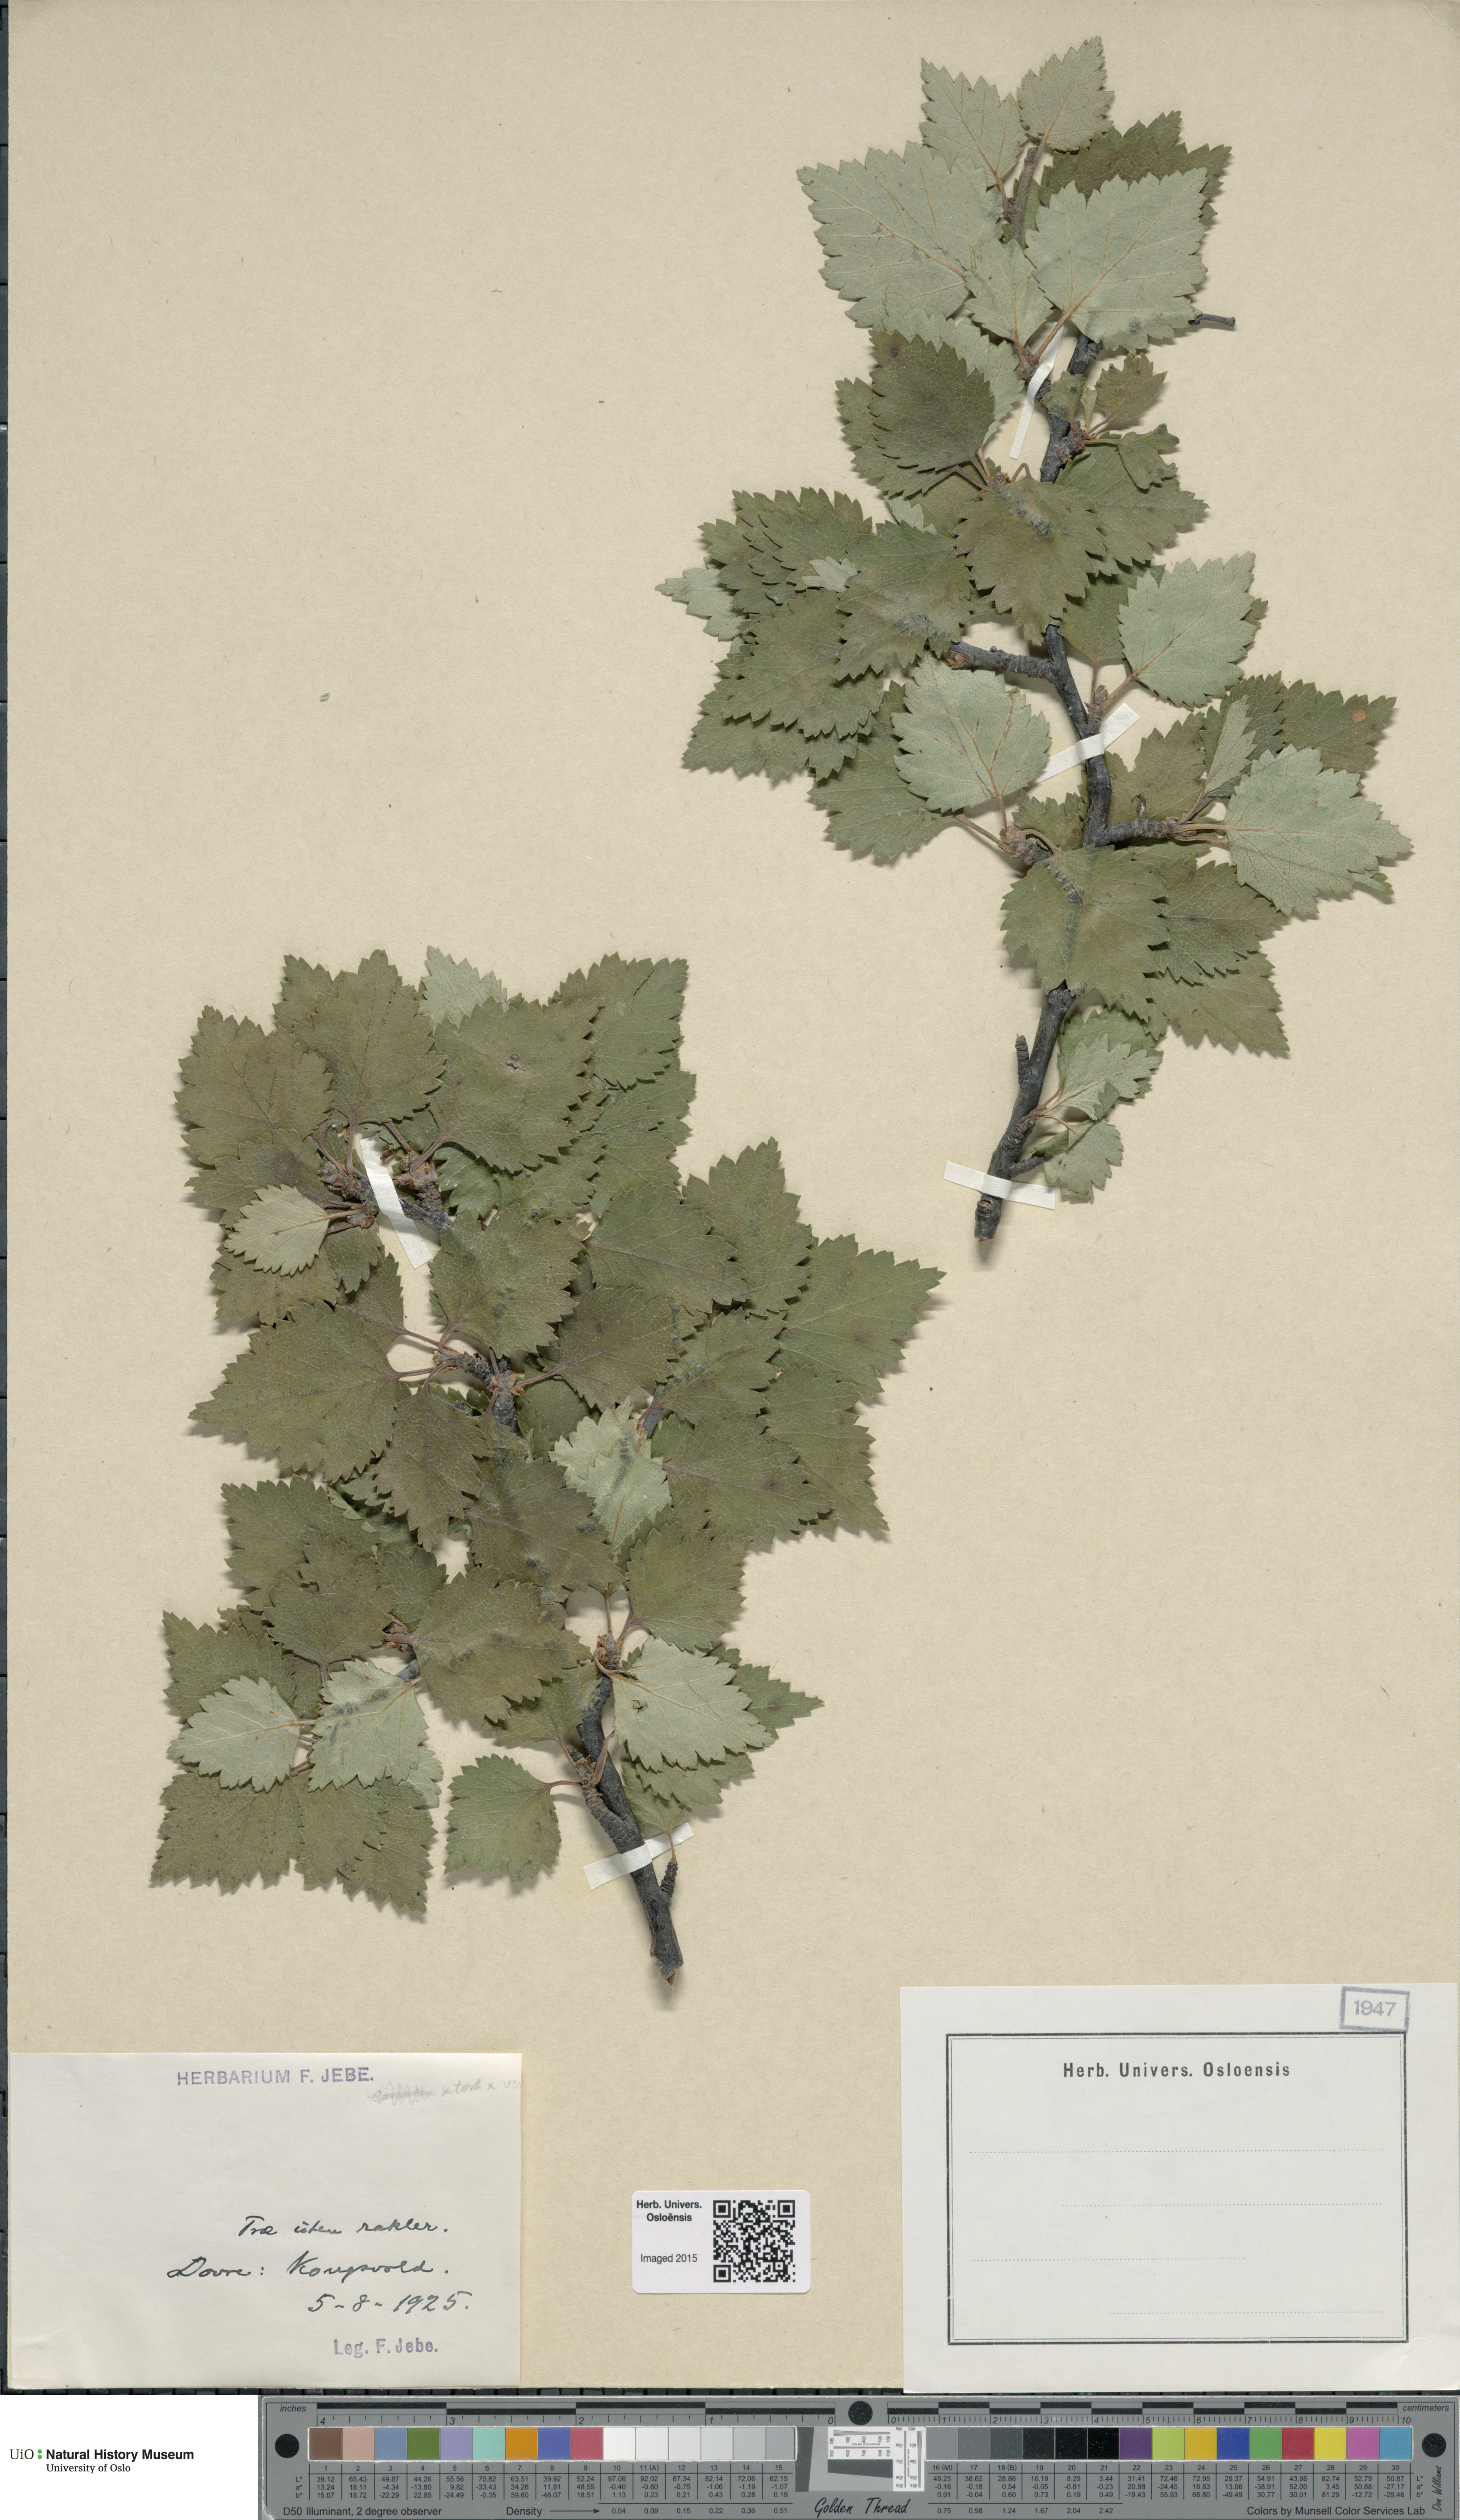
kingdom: Plantae
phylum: Tracheophyta
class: Magnoliopsida
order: Fagales
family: Betulaceae
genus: Betula
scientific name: Betula pubescens
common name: Downy birch
